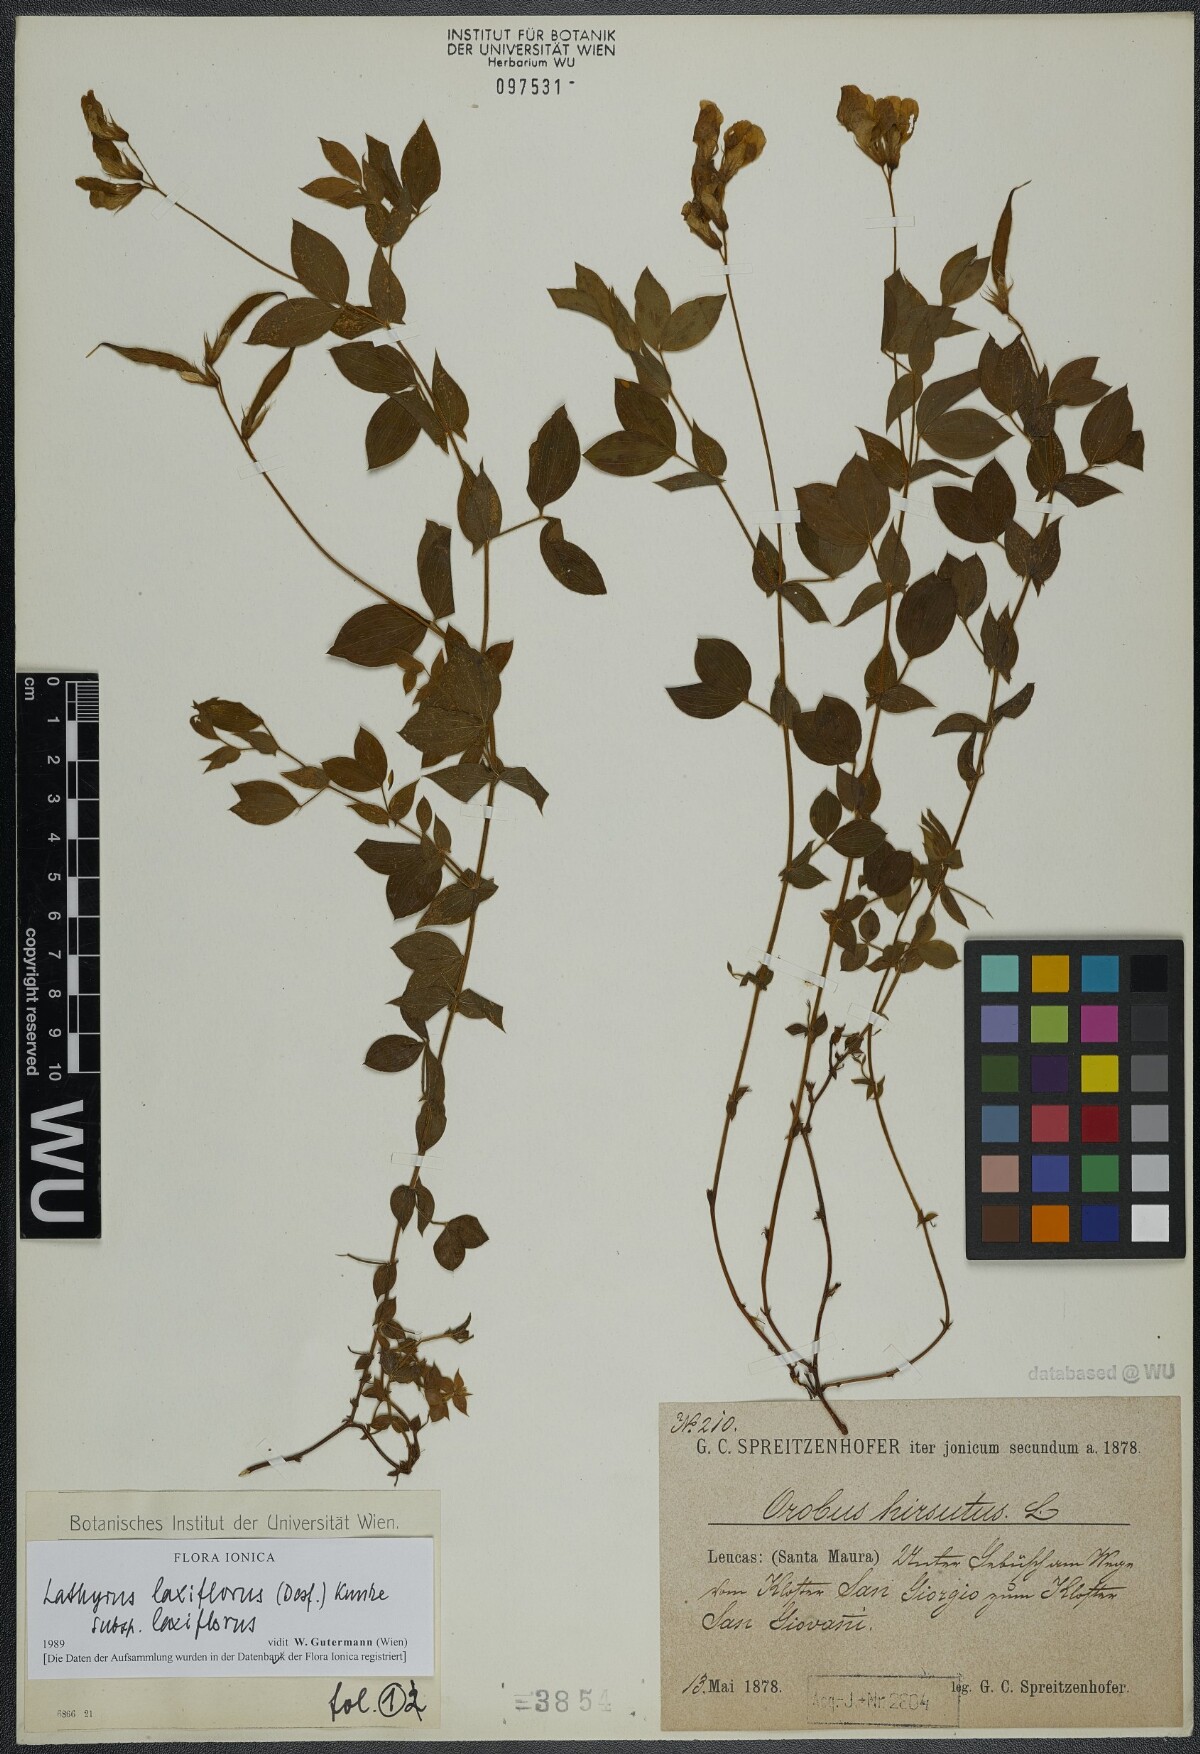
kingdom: Plantae
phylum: Tracheophyta
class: Magnoliopsida
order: Fabales
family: Fabaceae
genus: Lathyrus
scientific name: Lathyrus laxiflorus
